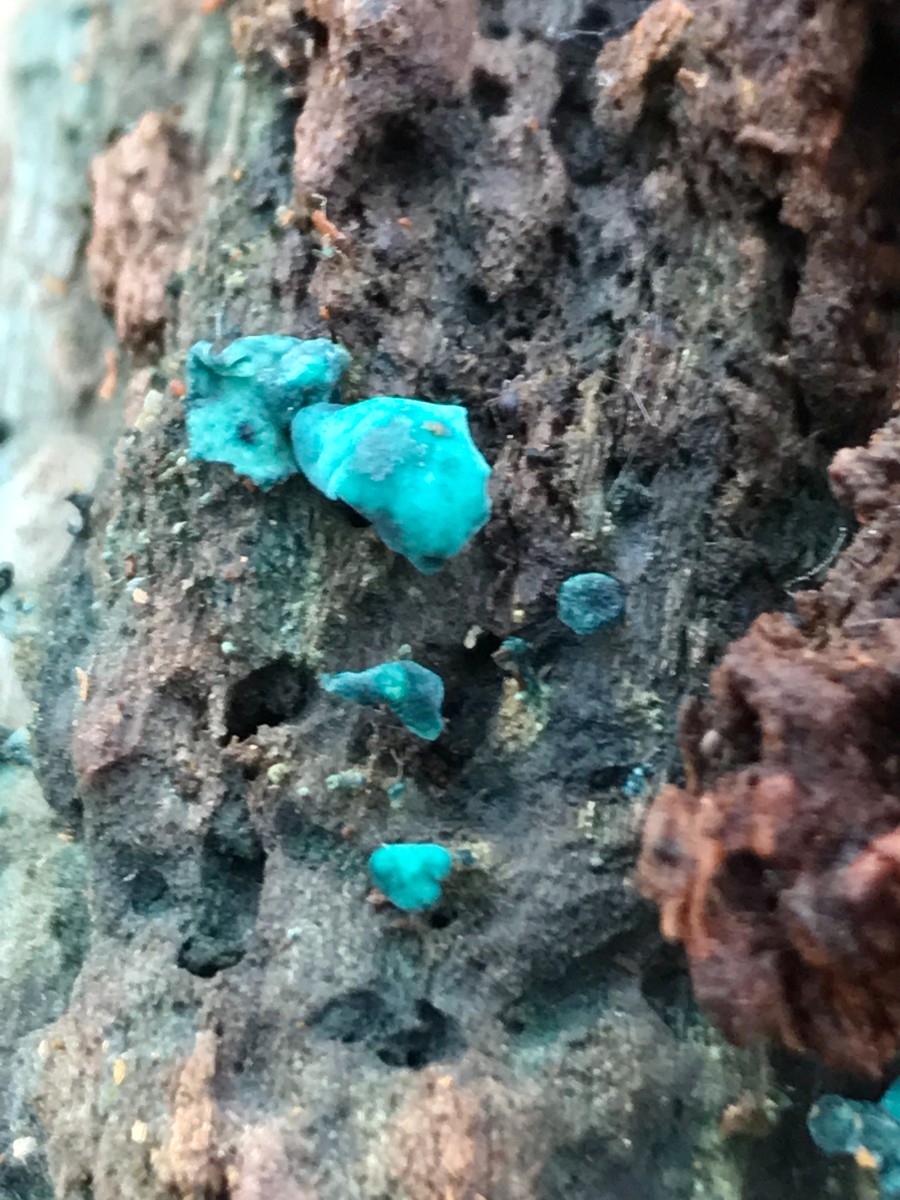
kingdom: Fungi
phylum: Ascomycota
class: Leotiomycetes
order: Helotiales
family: Chlorociboriaceae
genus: Chlorociboria
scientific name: Chlorociboria aeruginascens
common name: almindelig grønskive
